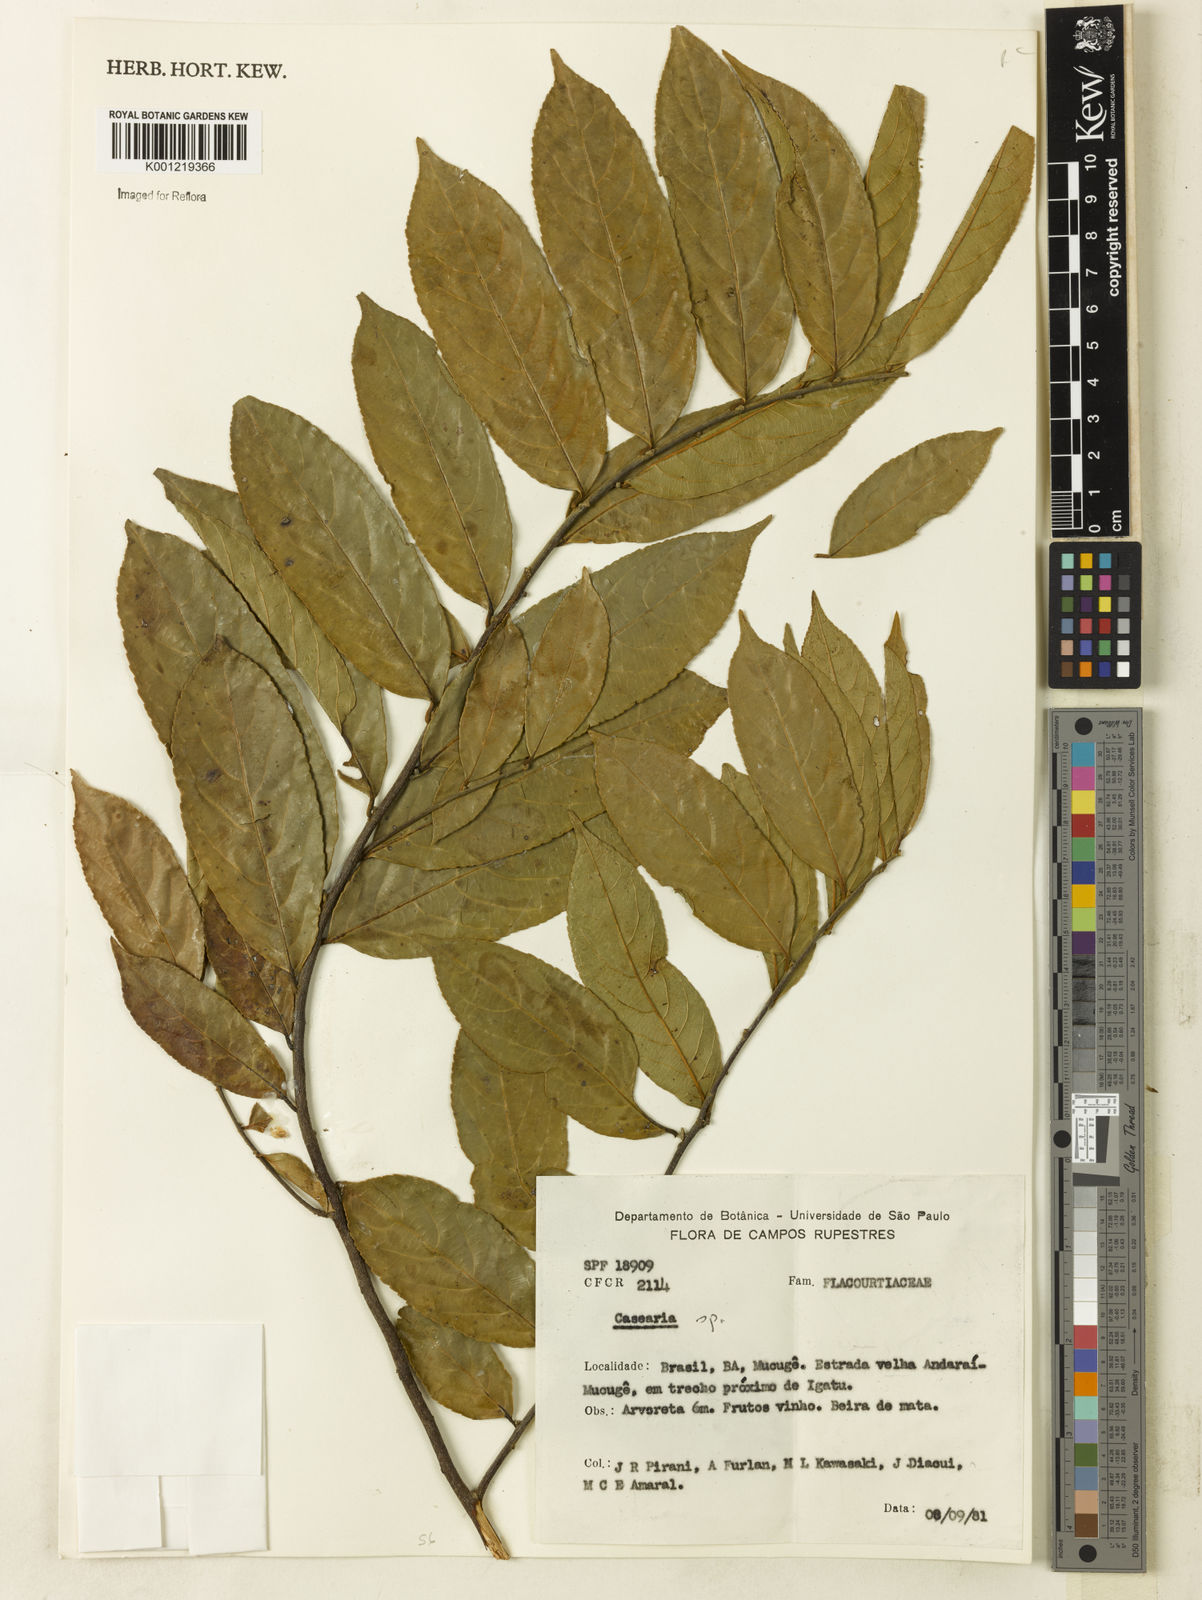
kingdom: Plantae
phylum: Tracheophyta
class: Magnoliopsida
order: Malpighiales
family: Salicaceae
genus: Casearia
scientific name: Casearia
